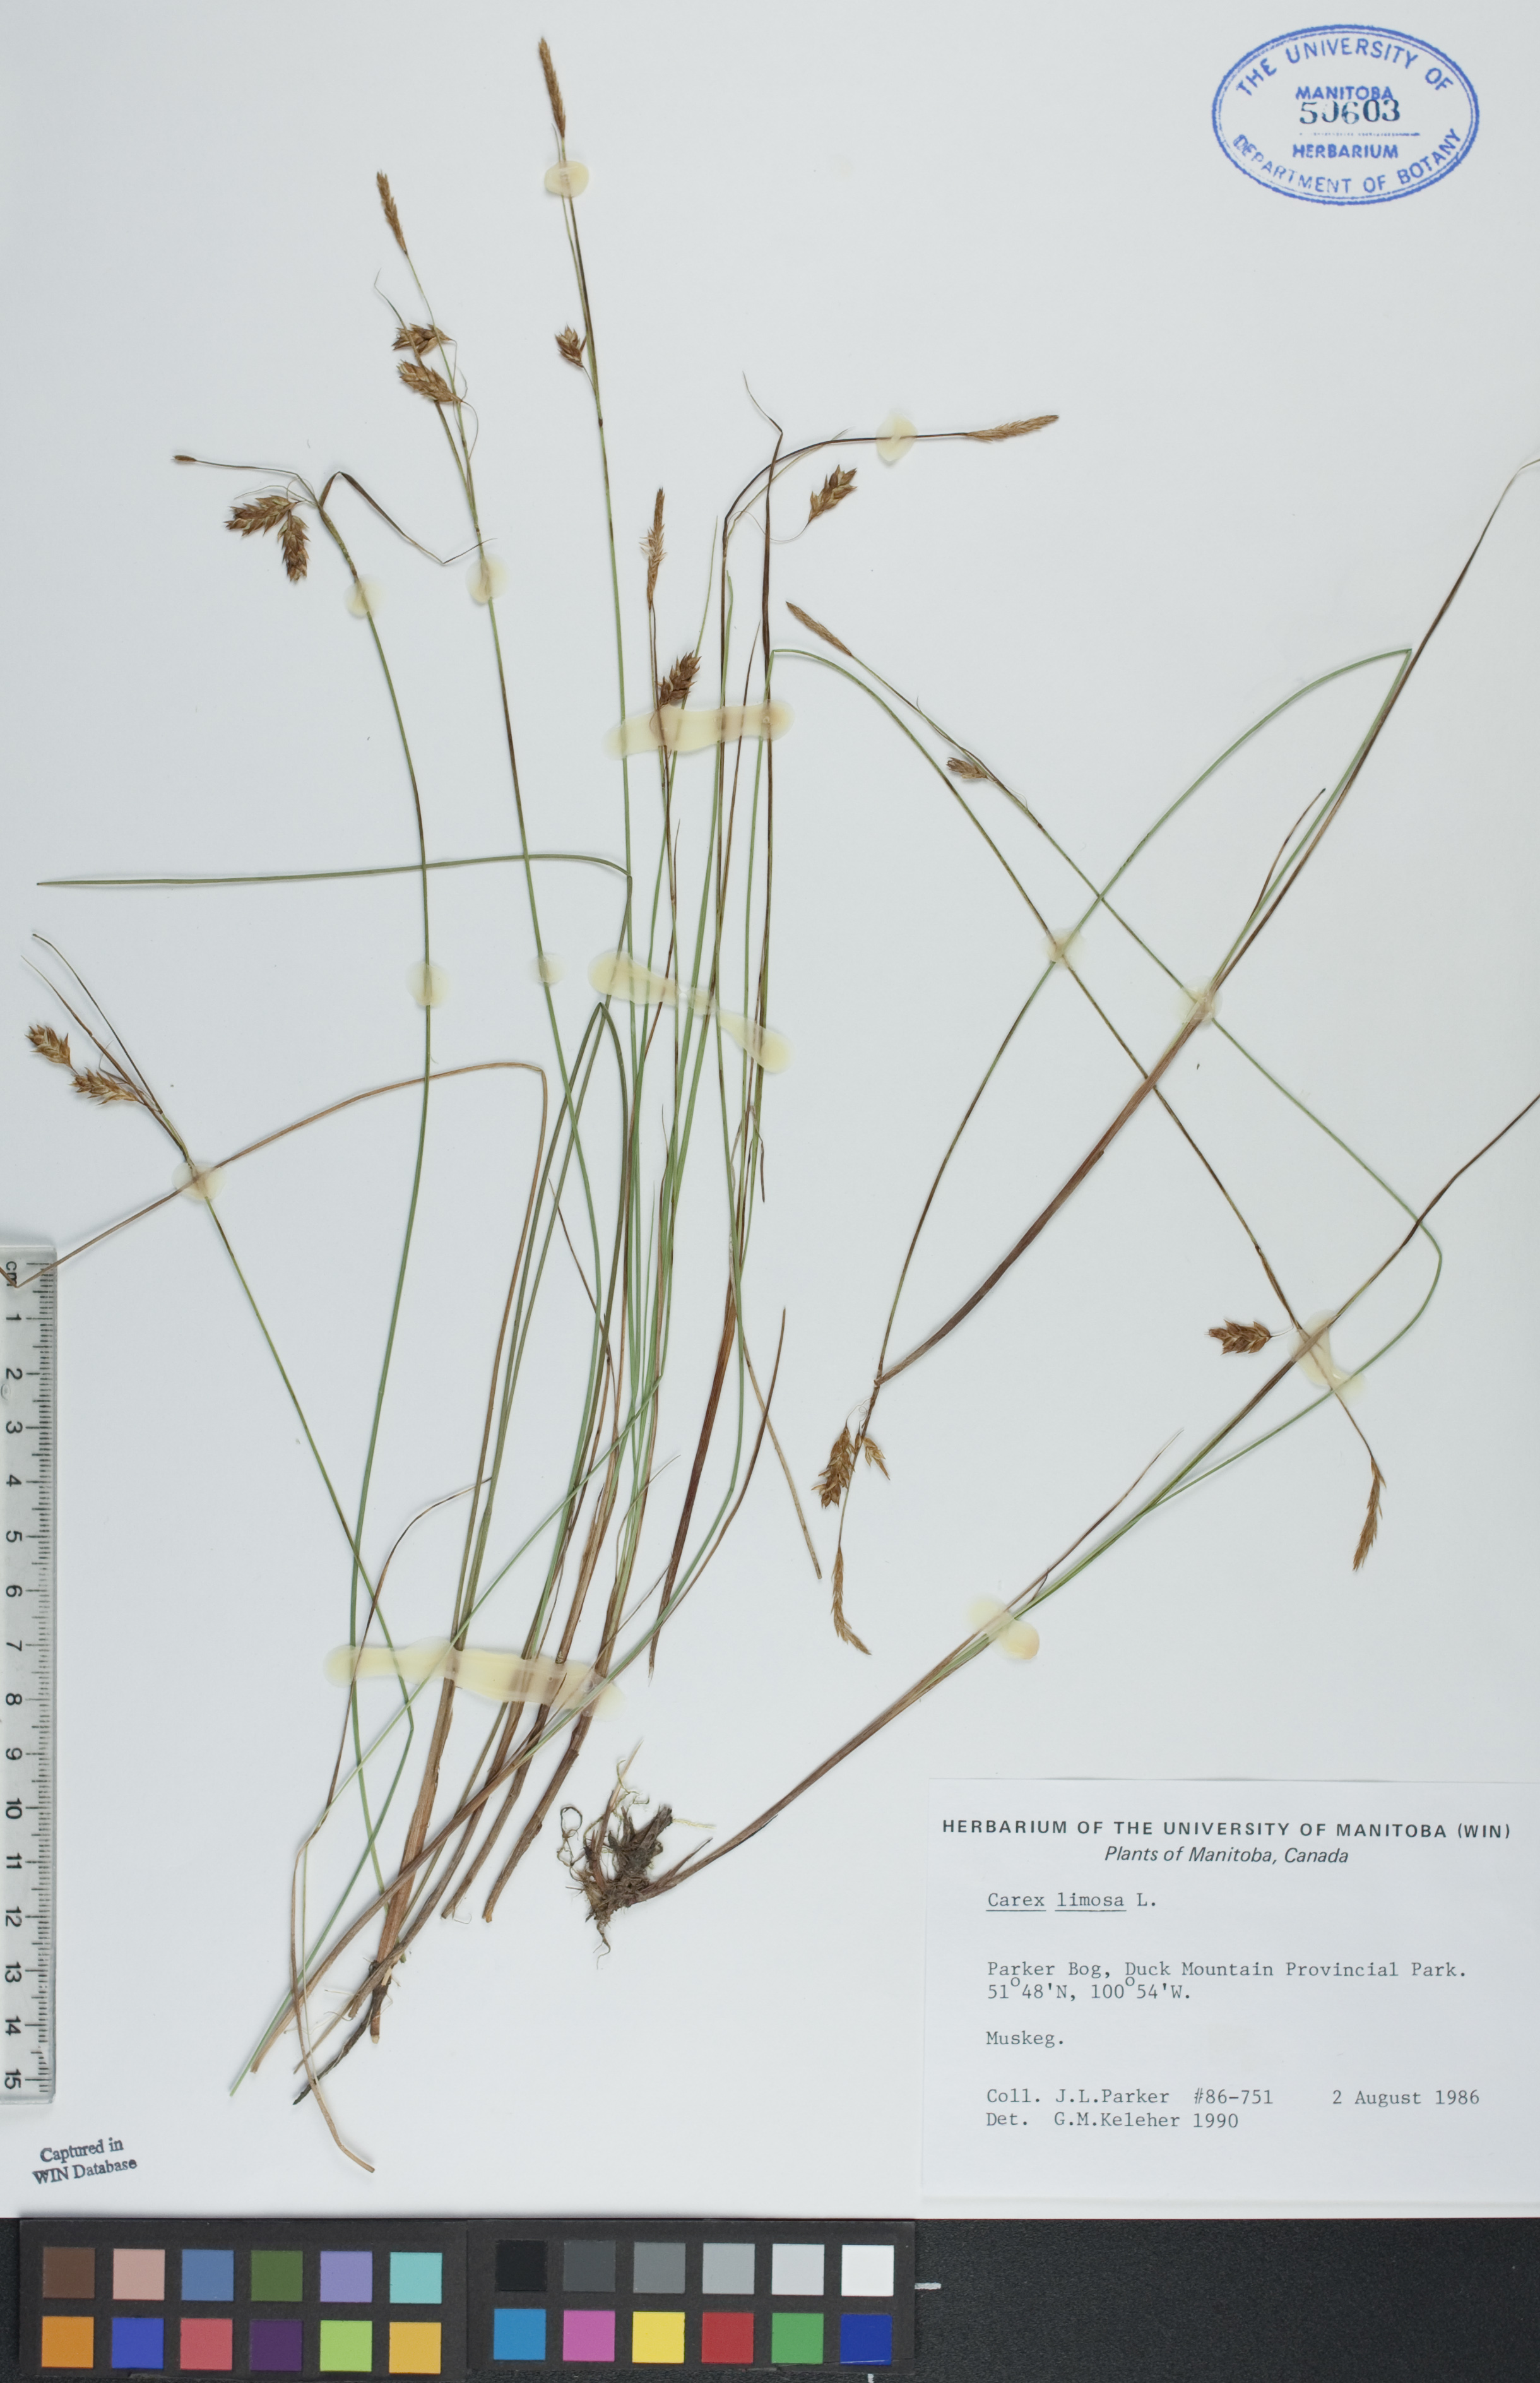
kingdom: Plantae
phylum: Tracheophyta
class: Liliopsida
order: Poales
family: Cyperaceae
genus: Carex
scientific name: Carex limosa
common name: Bog sedge
